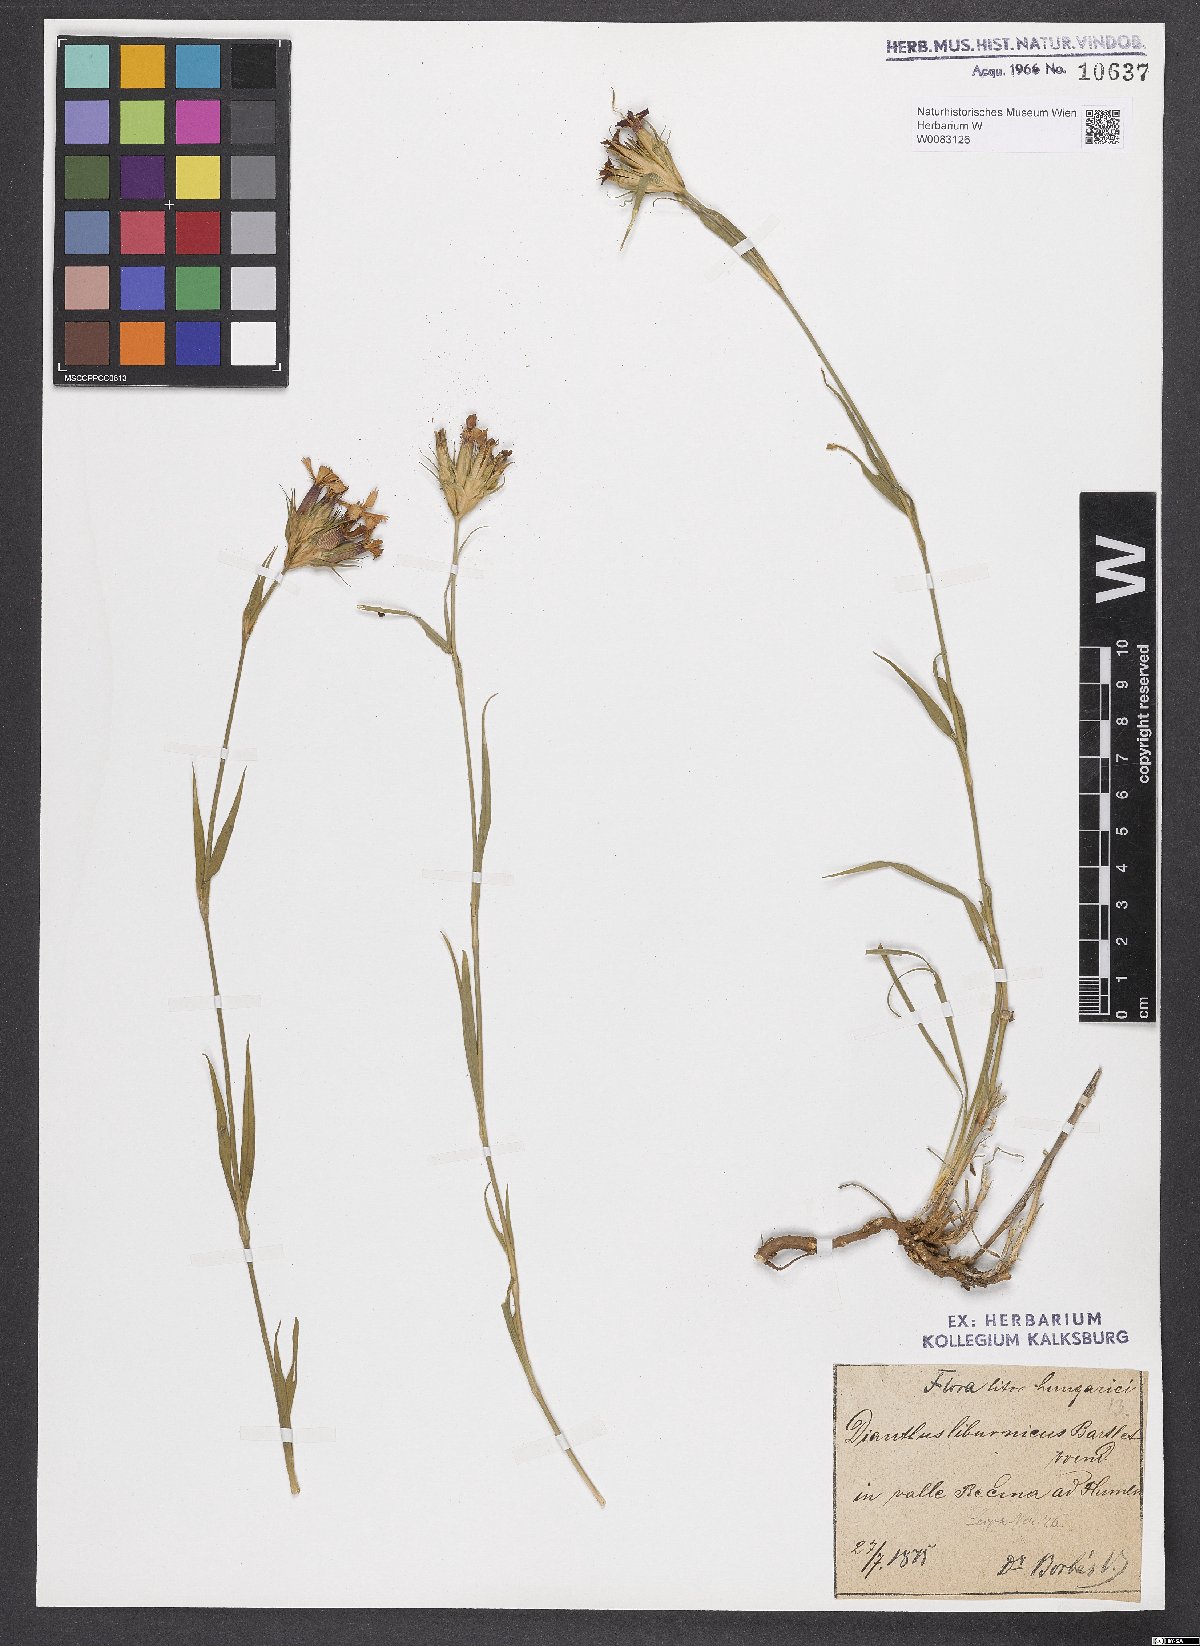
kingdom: Plantae
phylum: Tracheophyta
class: Magnoliopsida
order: Caryophyllales
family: Caryophyllaceae
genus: Dianthus
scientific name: Dianthus balbisii
